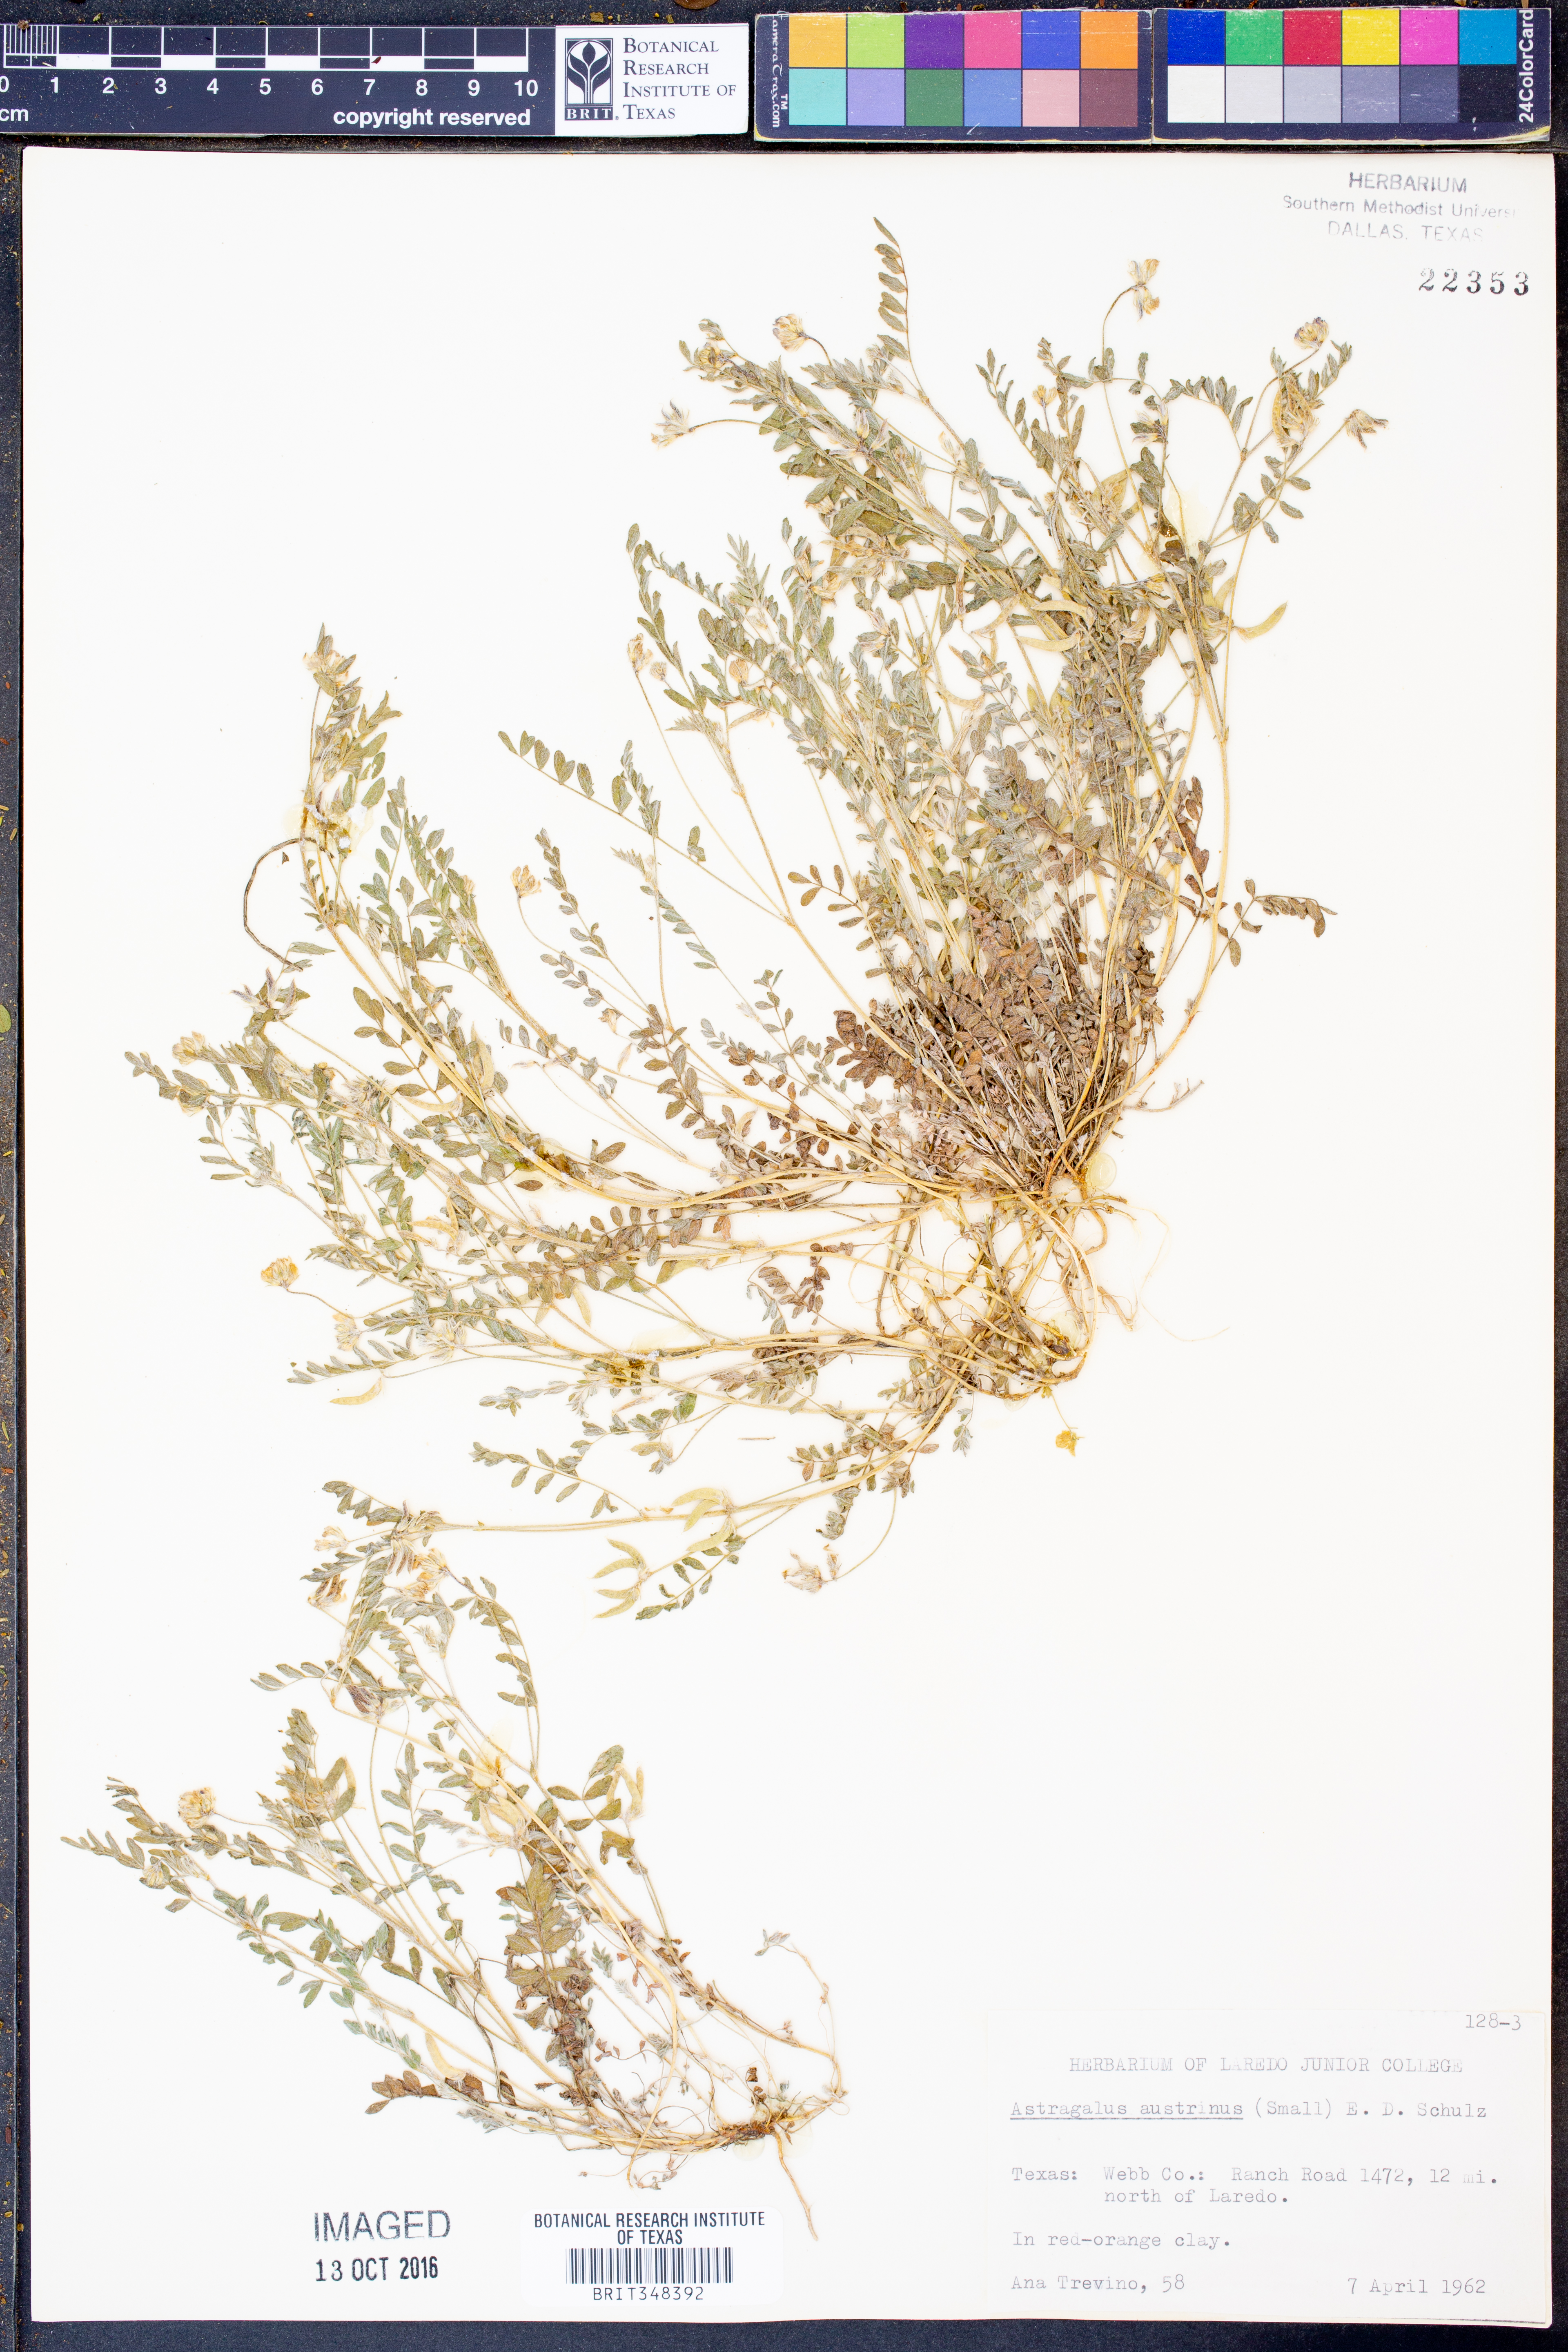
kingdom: Plantae
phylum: Tracheophyta
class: Magnoliopsida
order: Fabales
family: Fabaceae
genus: Astragalus
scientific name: Astragalus nuttallianus
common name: Smallflowered milkvetch
